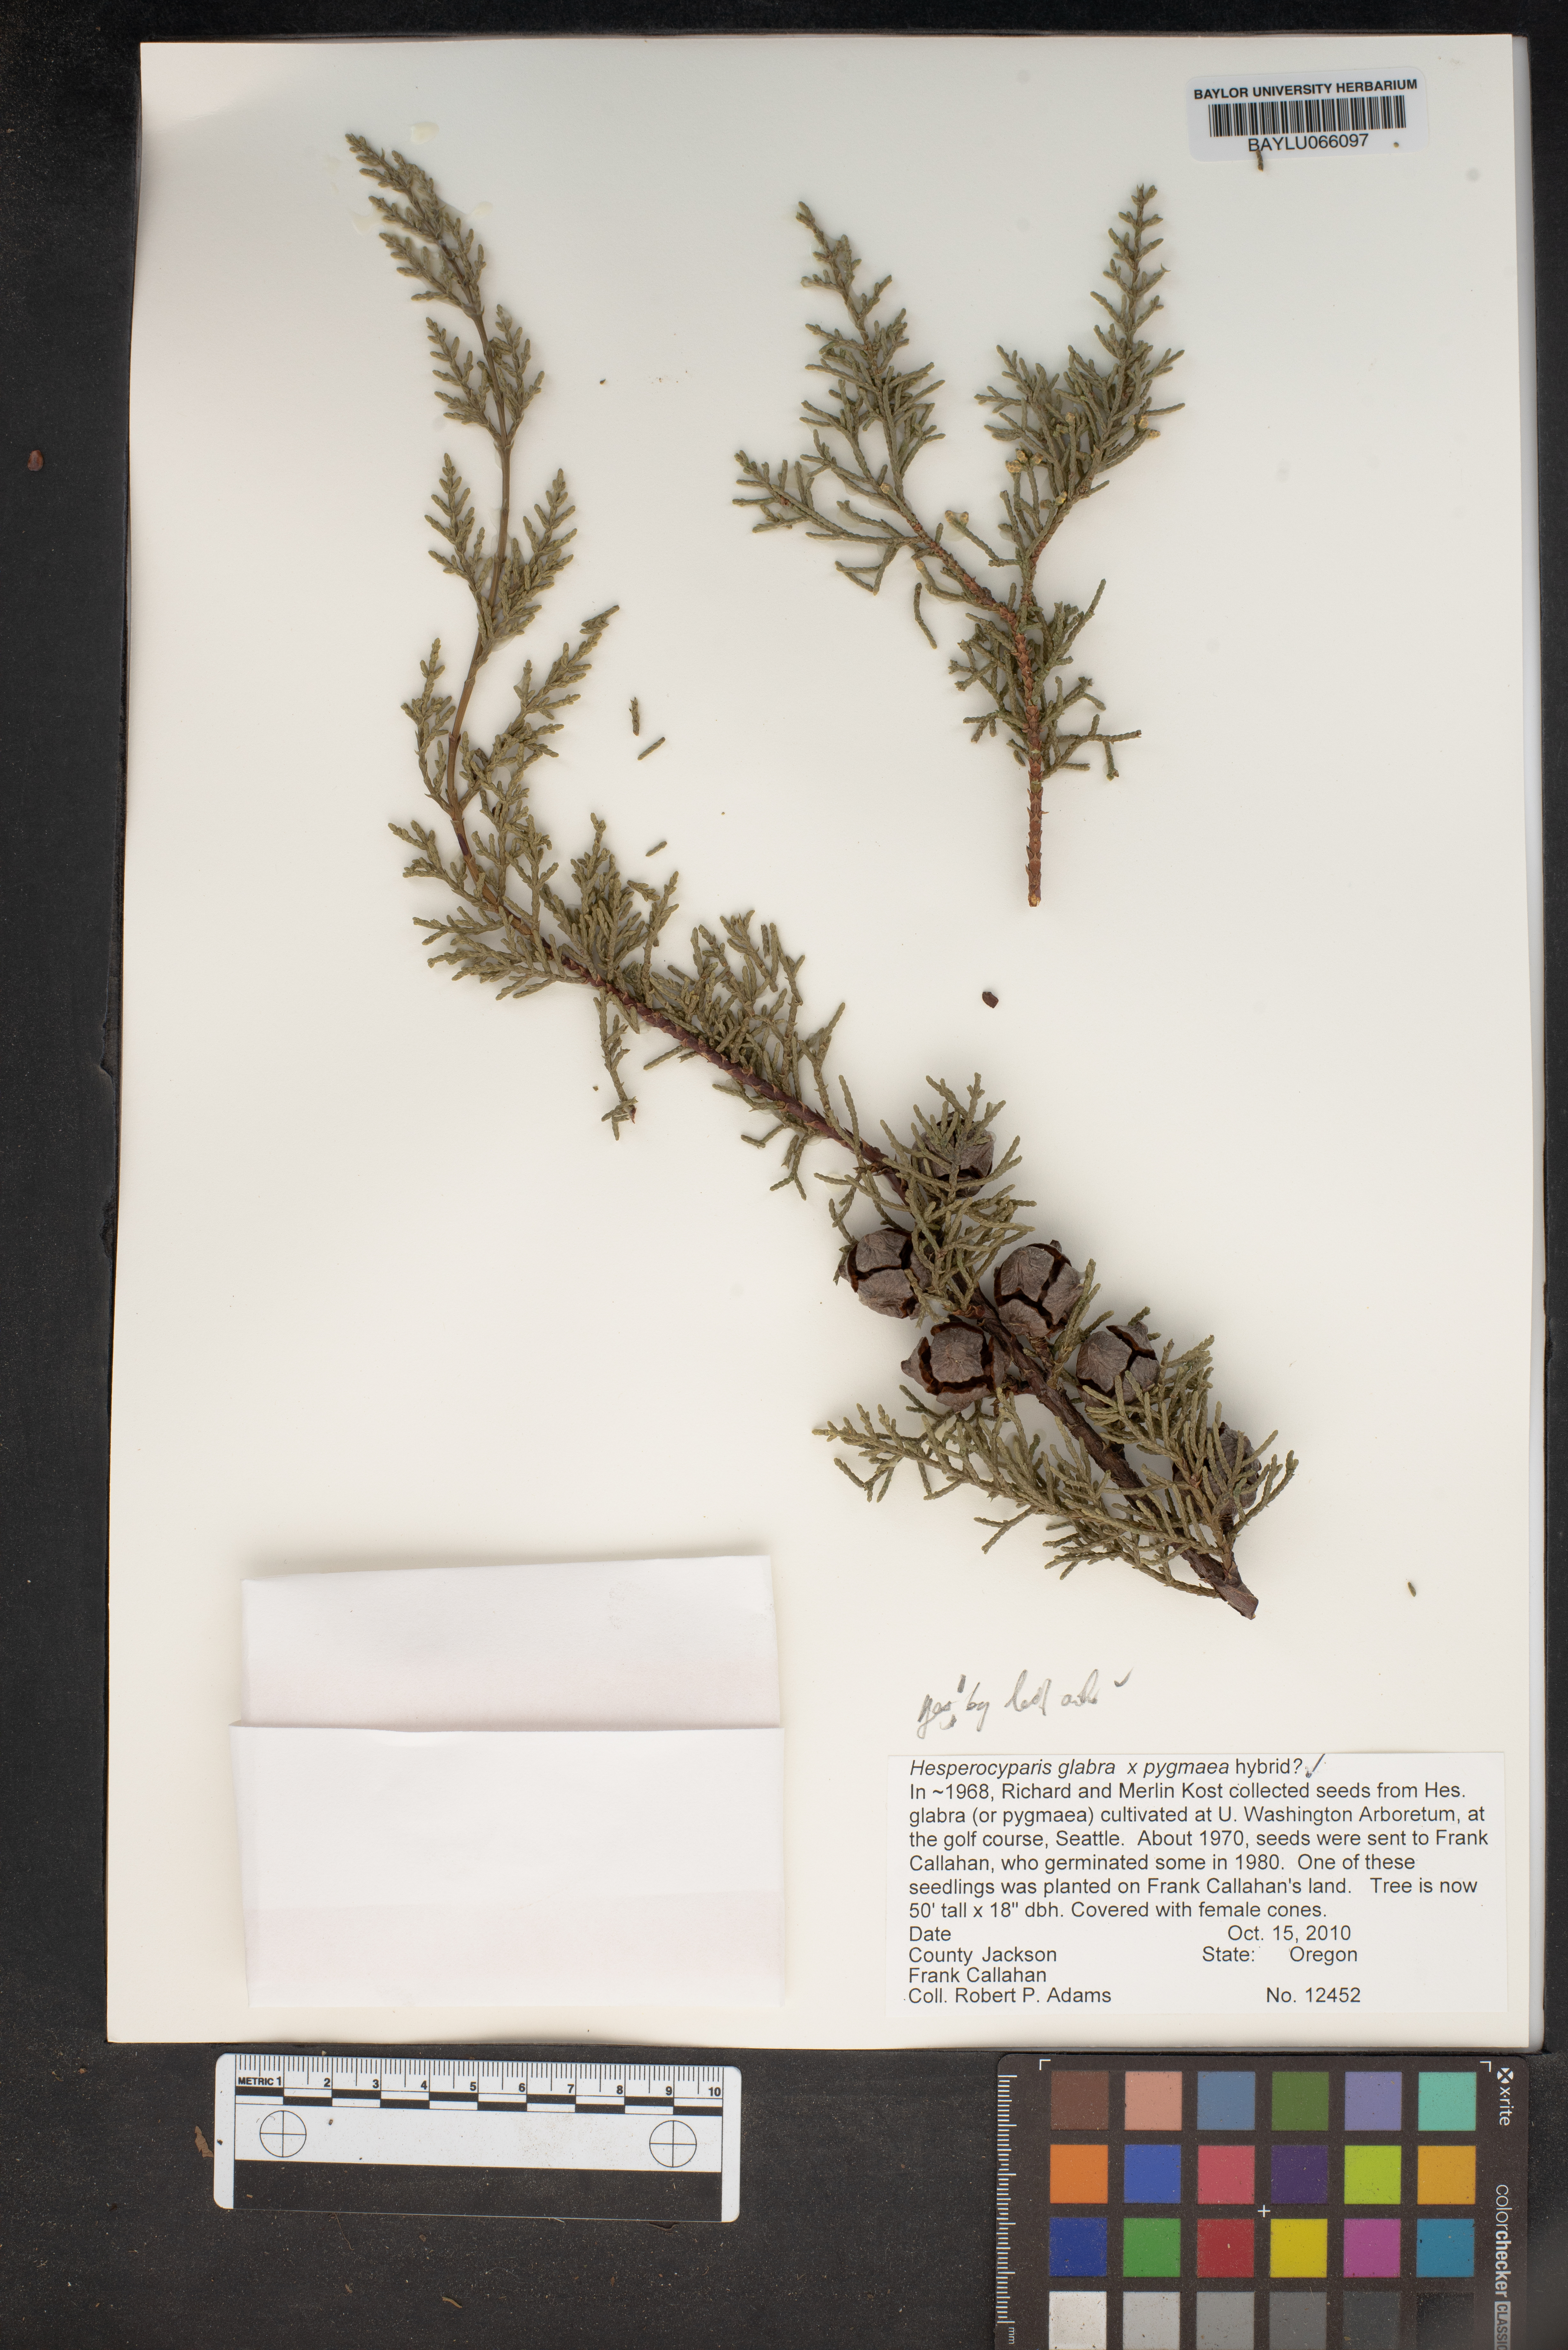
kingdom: Plantae
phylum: Tracheophyta
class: Pinopsida
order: Pinales
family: Cupressaceae
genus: Cupressus
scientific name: Cupressus arizonica
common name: Arizona cypress
